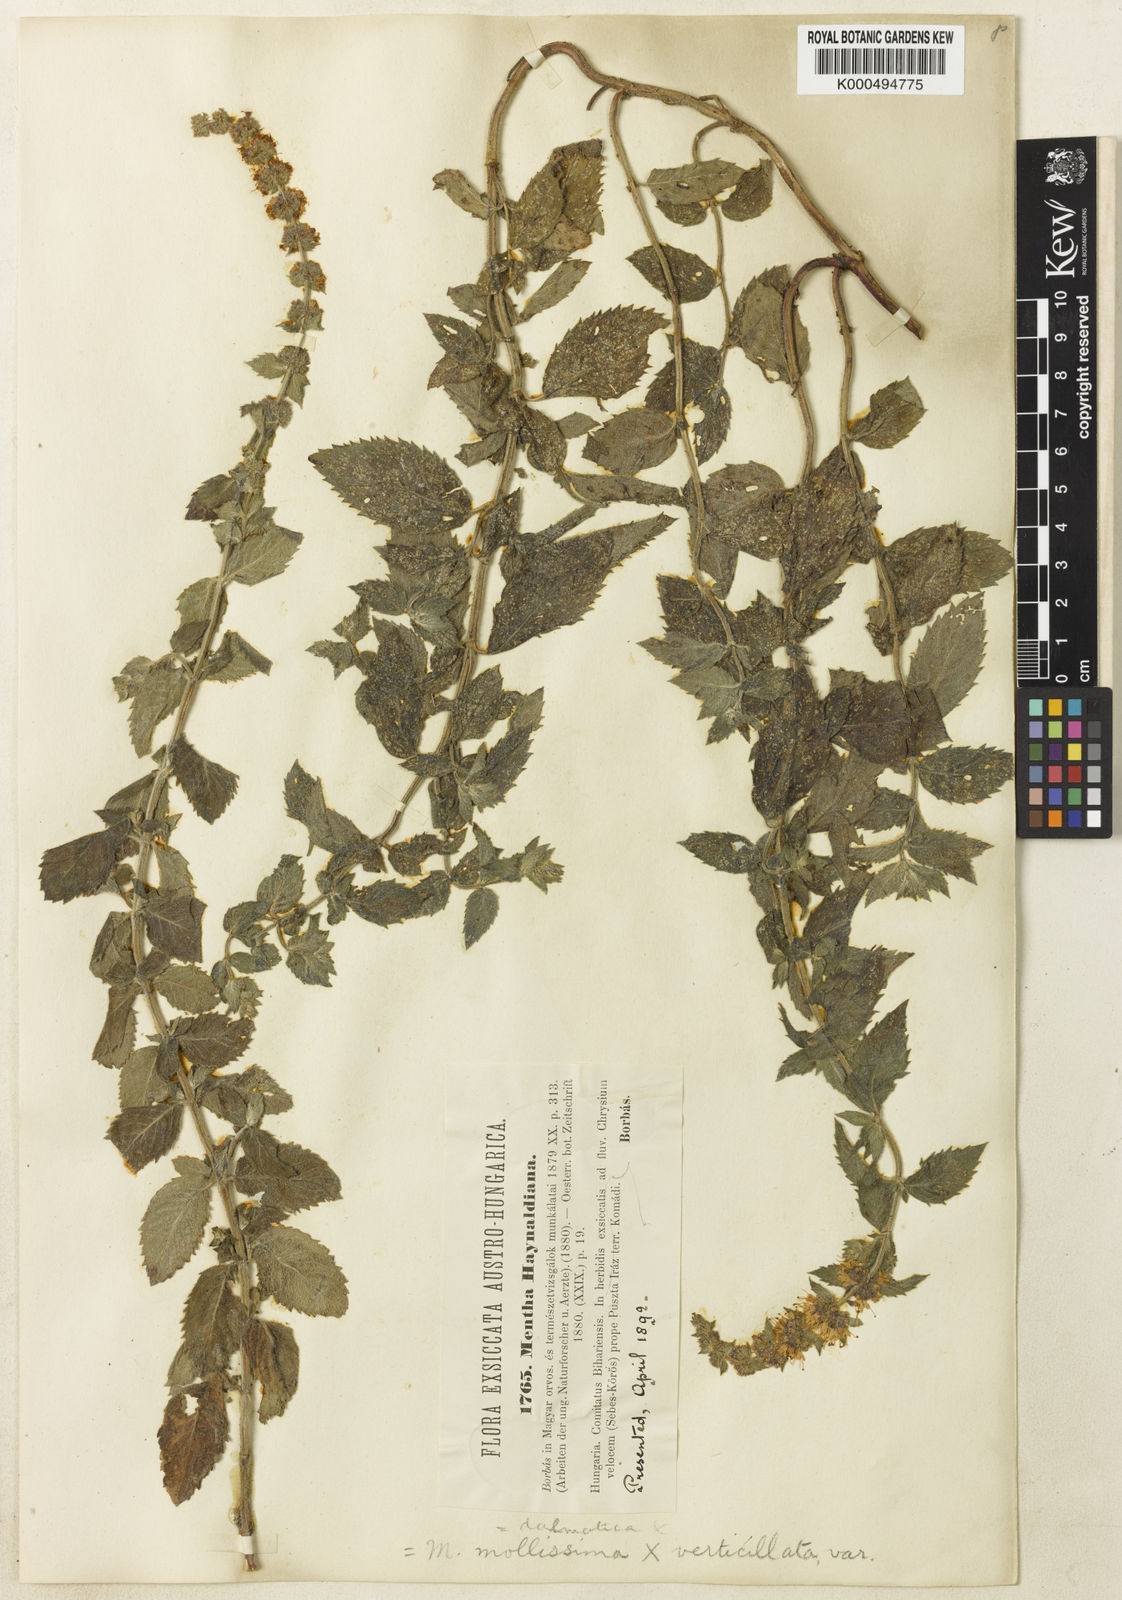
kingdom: Plantae
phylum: Tracheophyta
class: Magnoliopsida
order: Lamiales
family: Lamiaceae
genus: Mentha
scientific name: Mentha dalmatica
